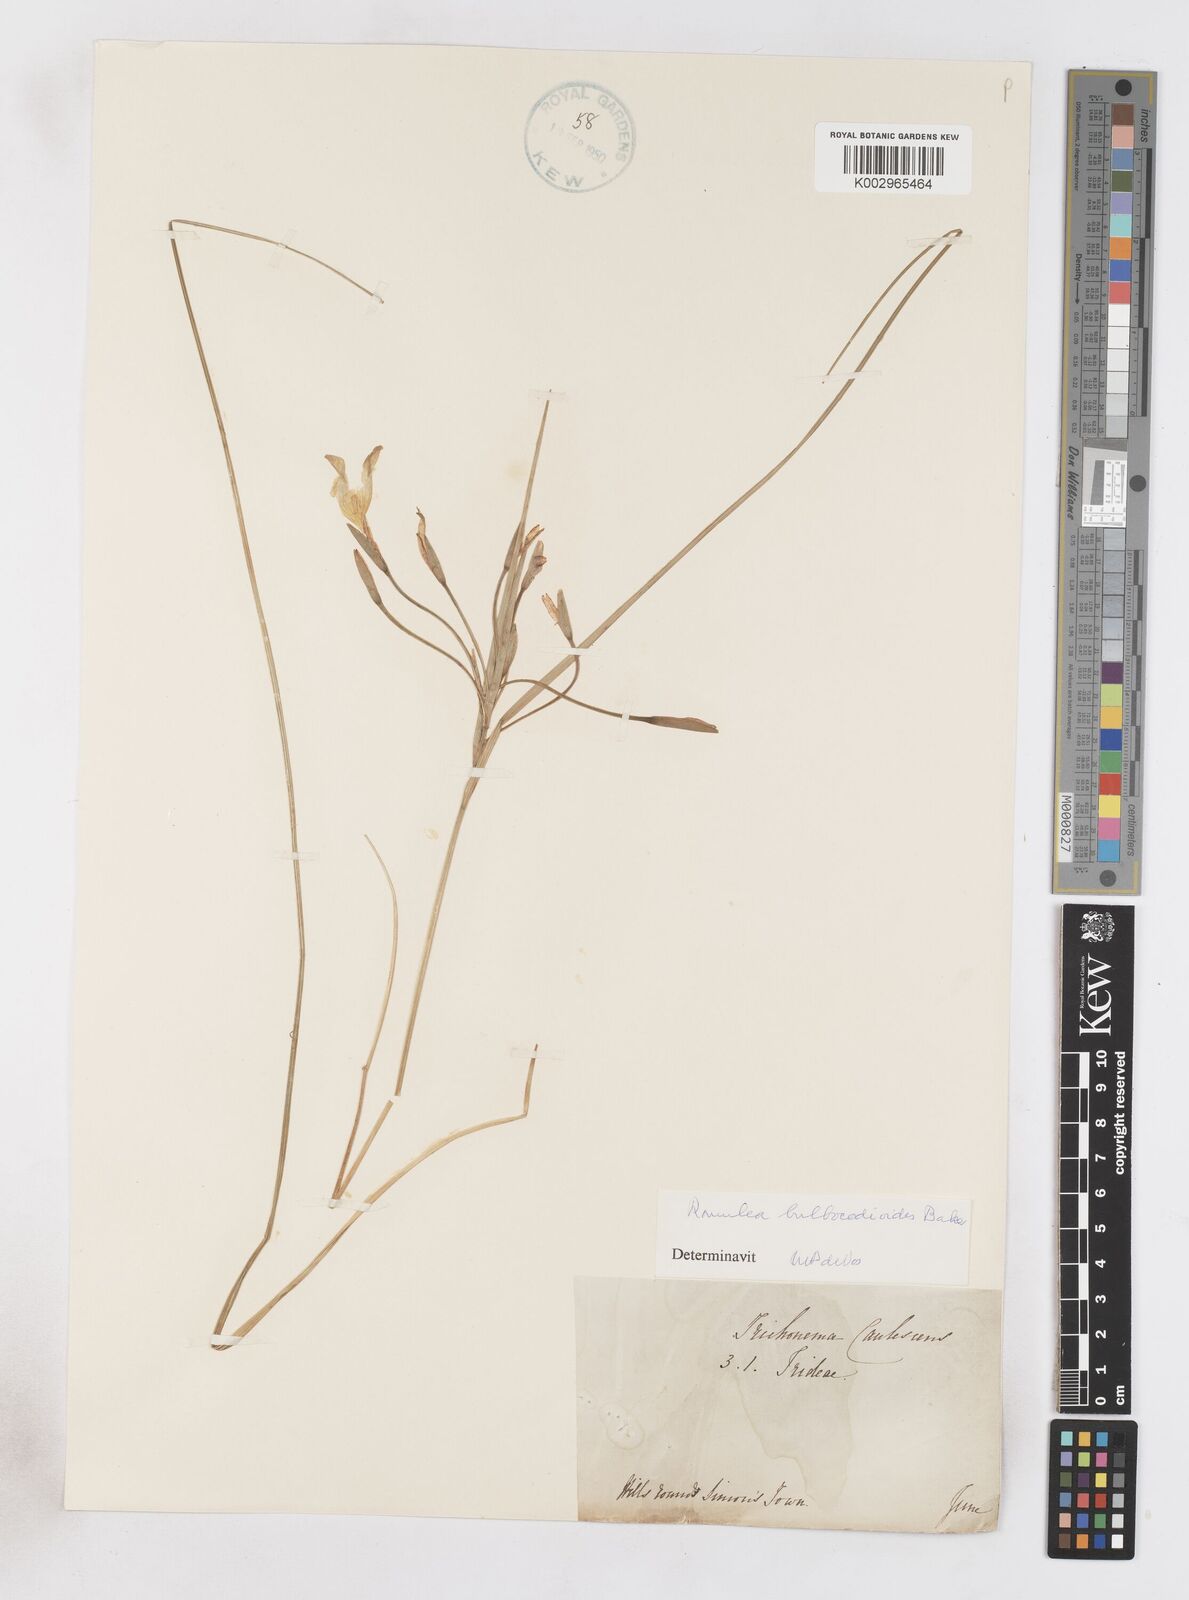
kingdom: Plantae
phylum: Tracheophyta
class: Liliopsida
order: Asparagales
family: Iridaceae
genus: Romulea
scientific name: Romulea flava
